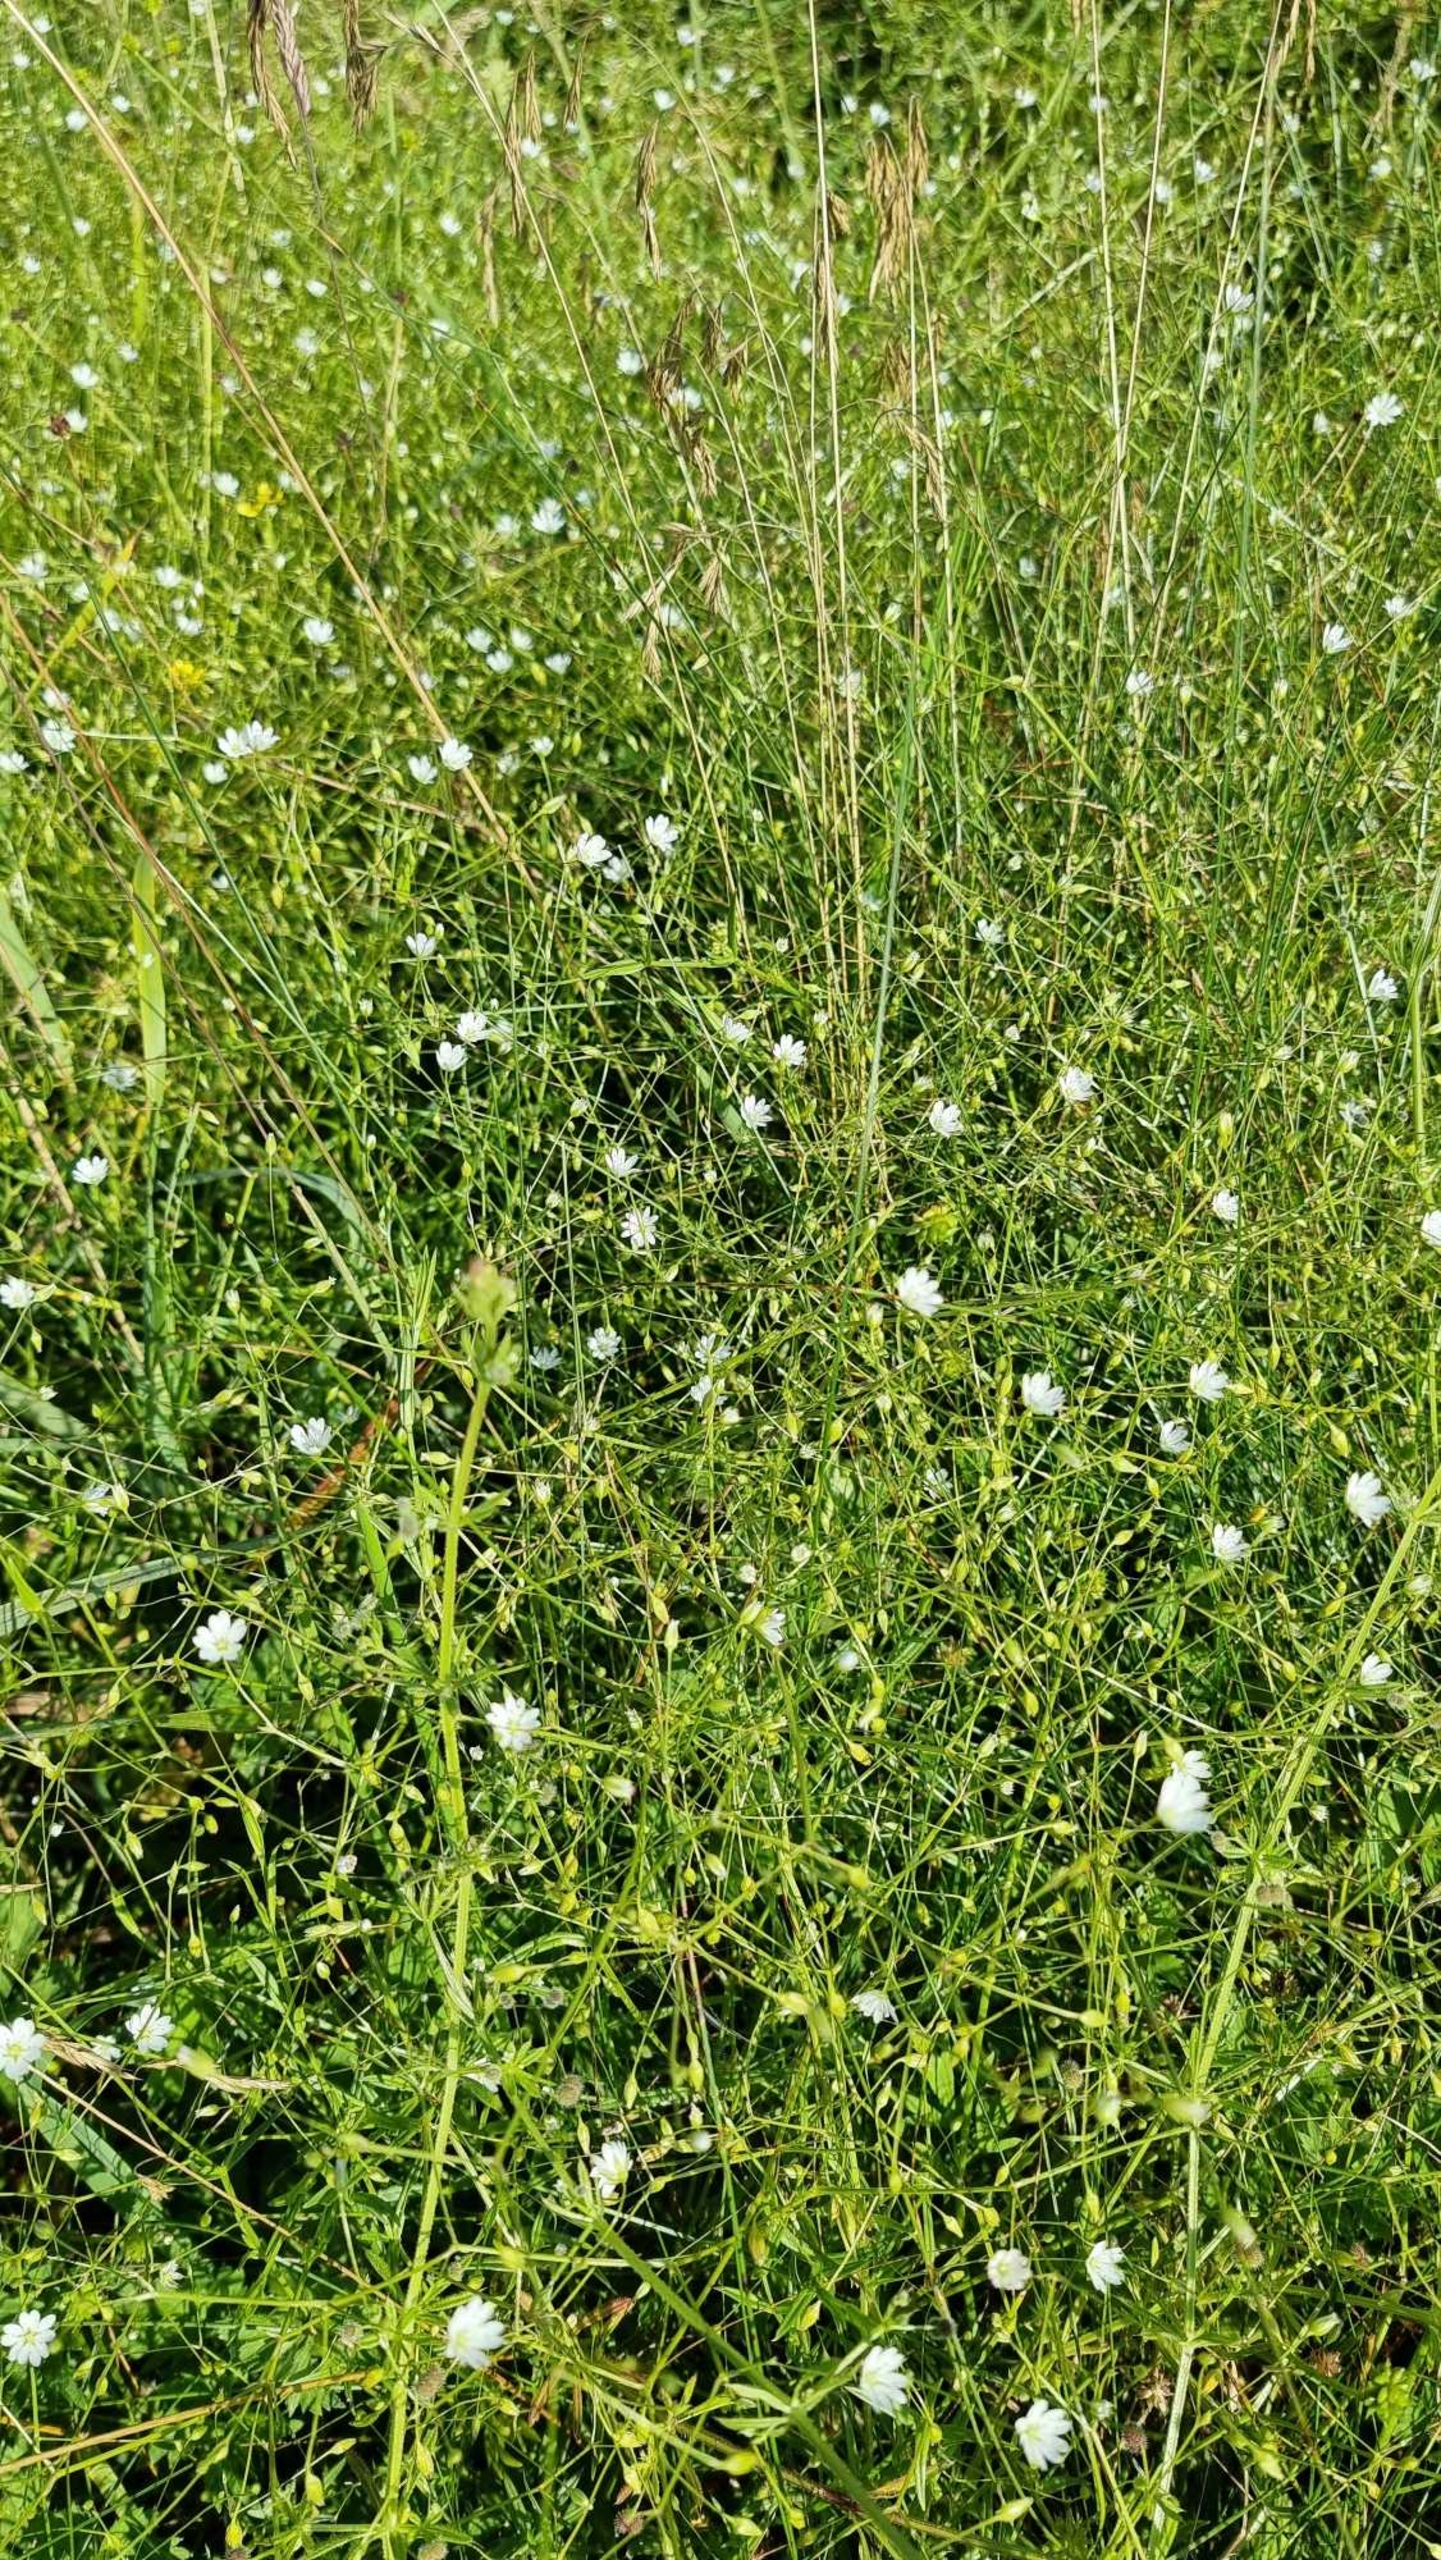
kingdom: Plantae
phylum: Tracheophyta
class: Magnoliopsida
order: Caryophyllales
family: Caryophyllaceae
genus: Stellaria
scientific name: Stellaria graminea
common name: Græsbladet fladstjerne
